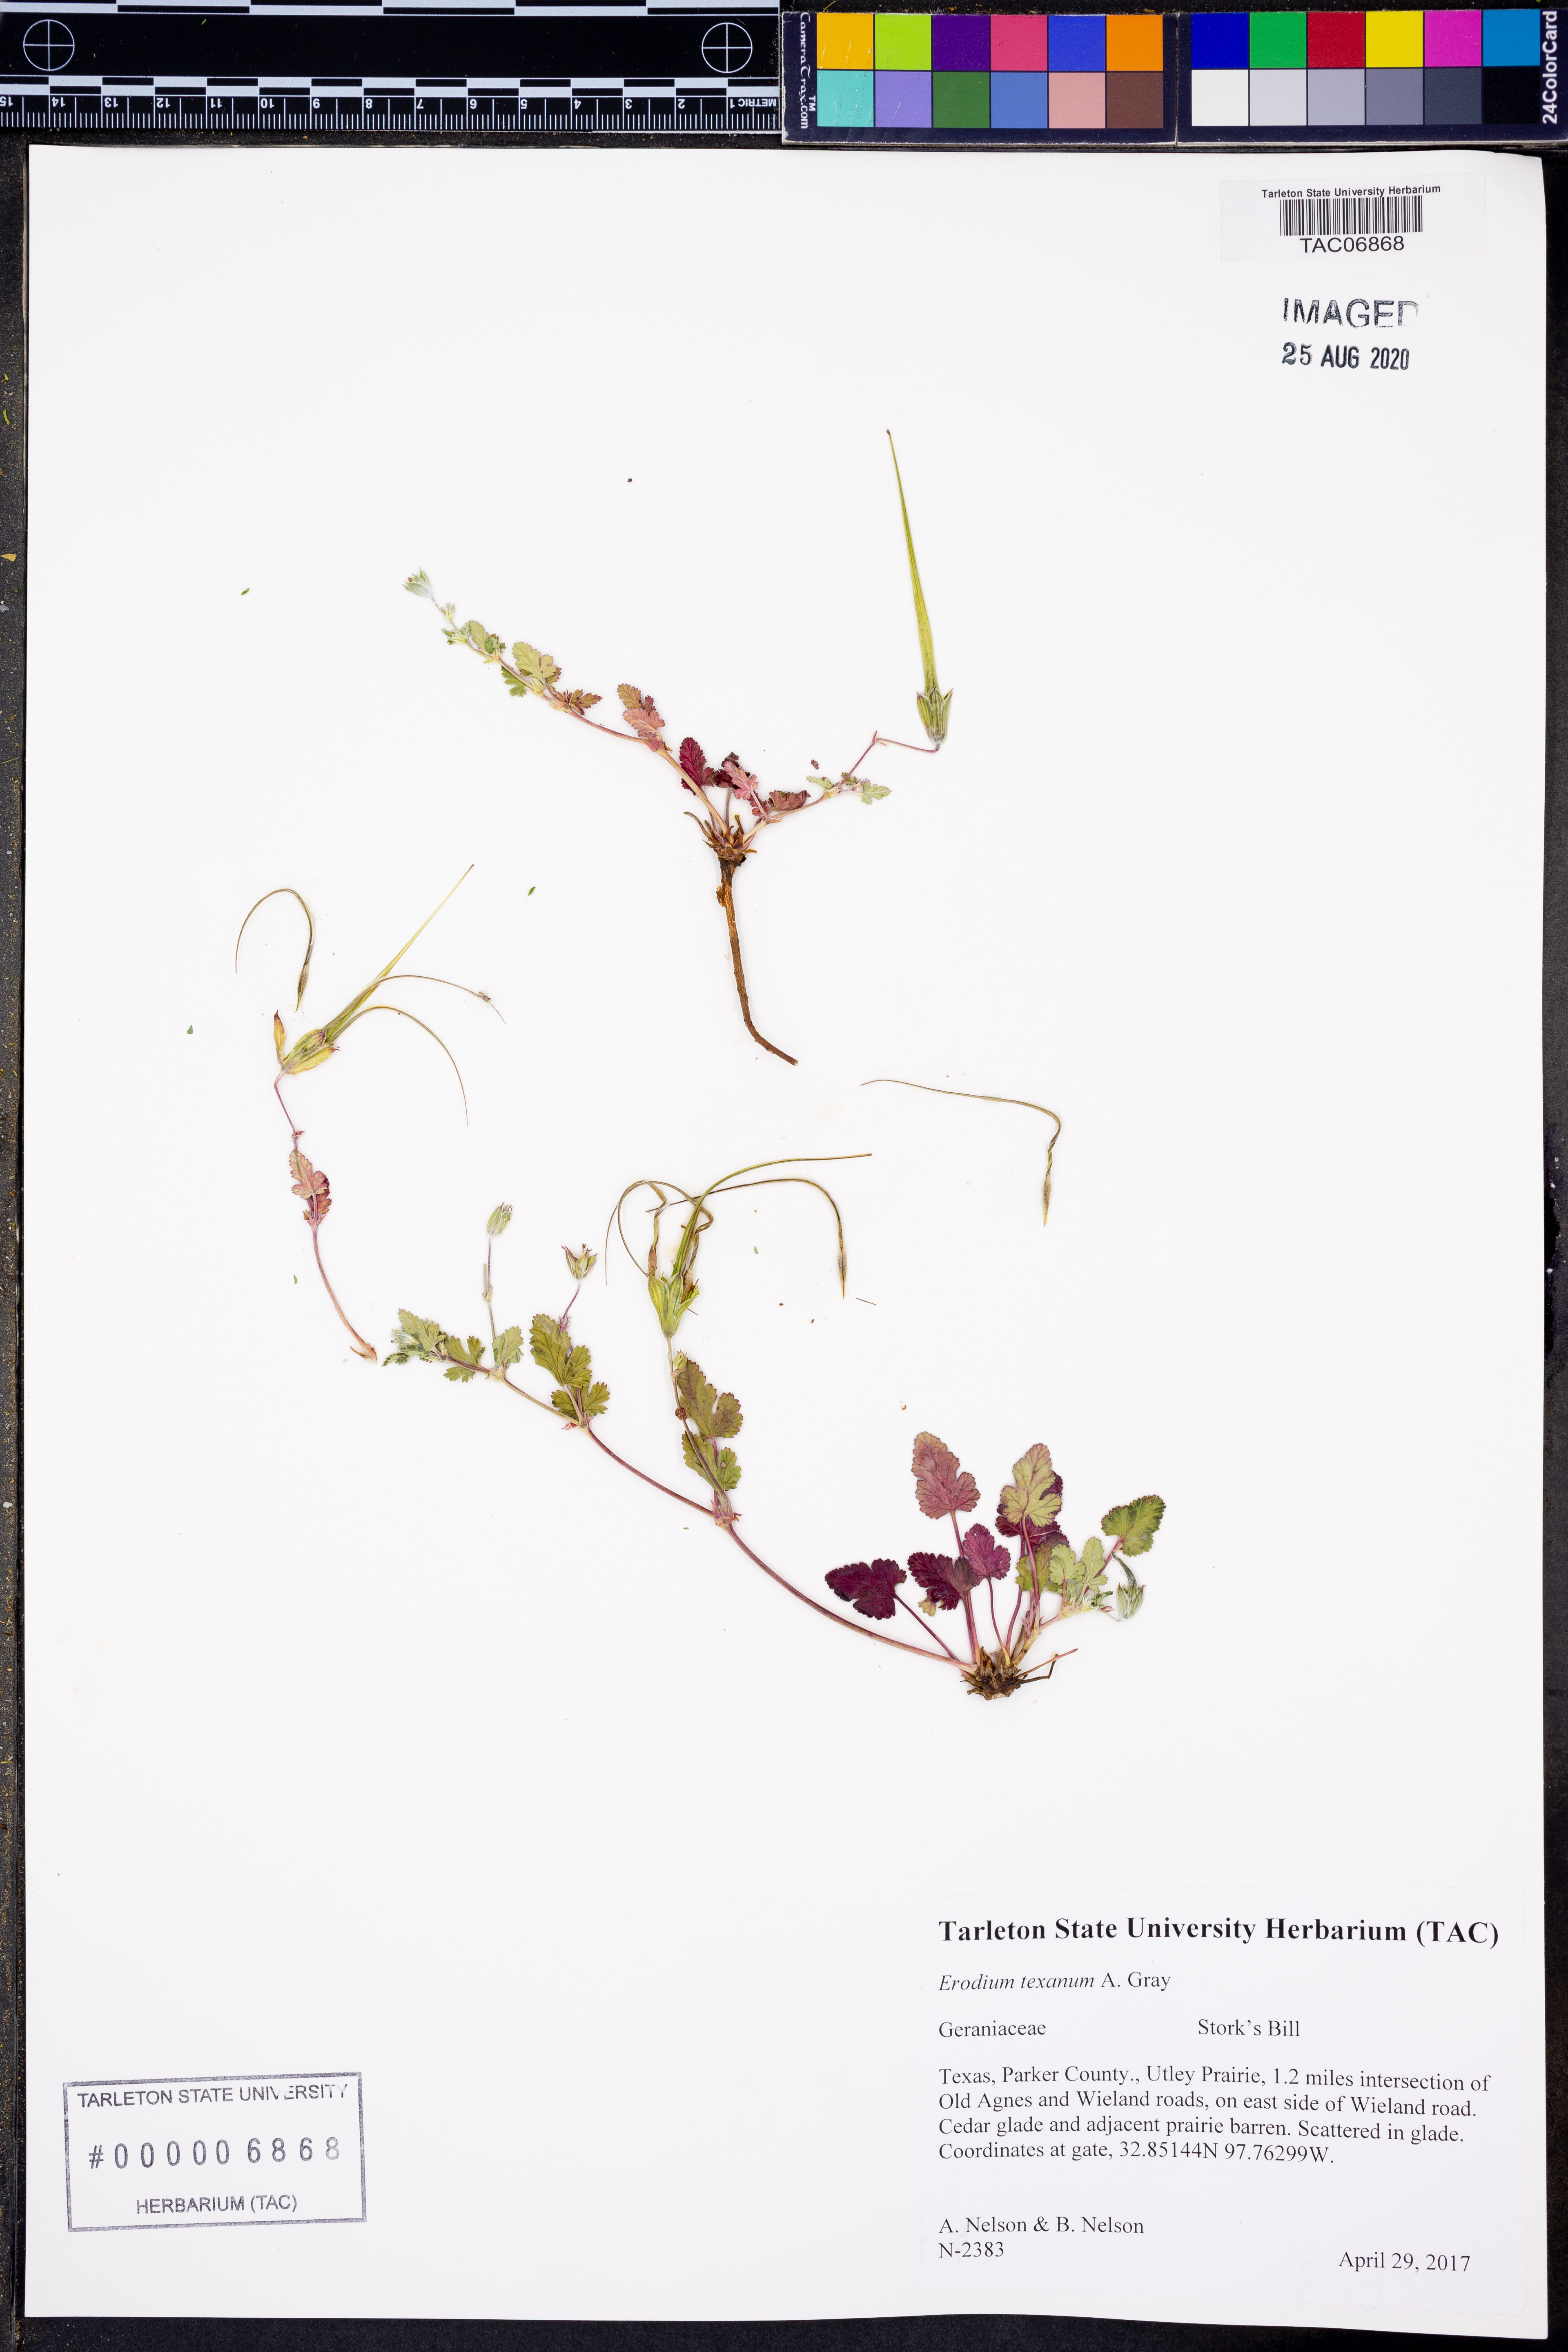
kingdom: Plantae
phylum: Tracheophyta
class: Magnoliopsida
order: Geraniales
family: Geraniaceae
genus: Erodium
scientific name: Erodium texanum
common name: Texas stork's-bill
